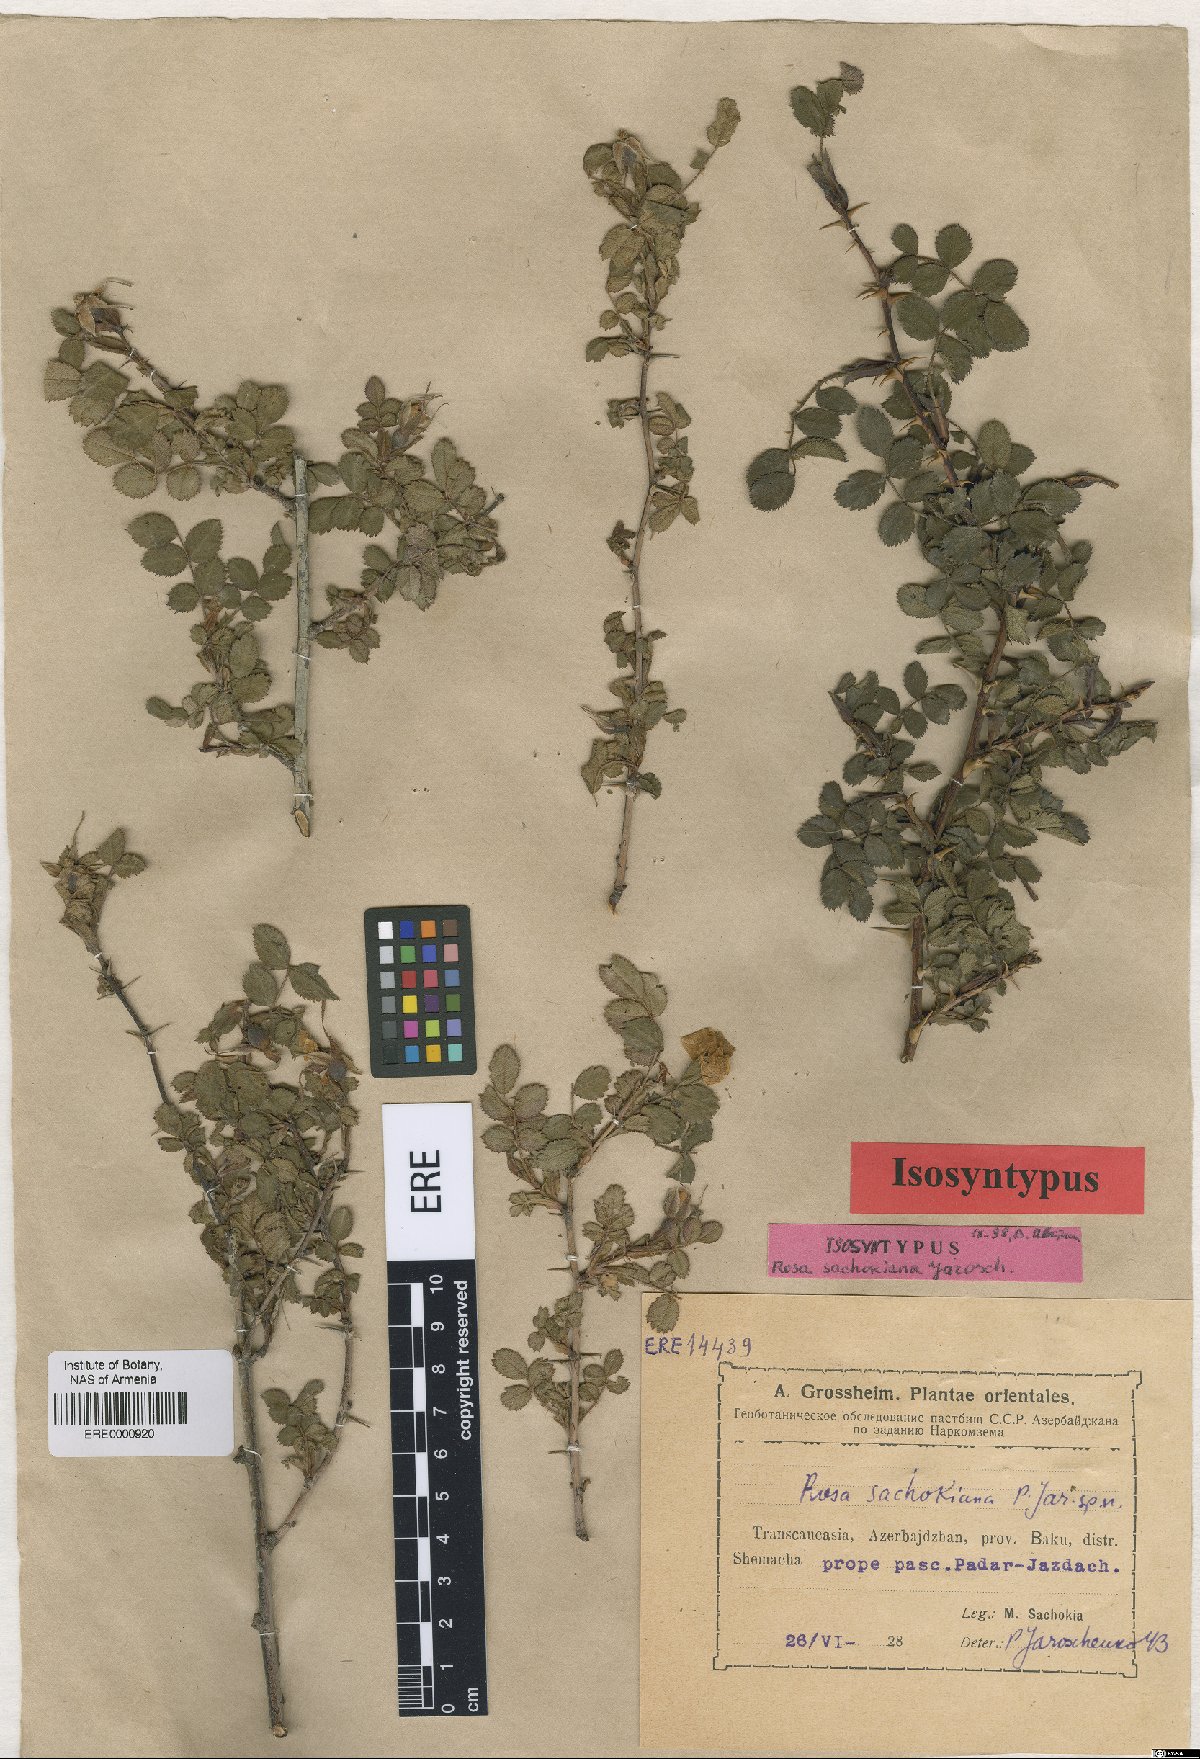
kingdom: Plantae
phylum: Tracheophyta
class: Magnoliopsida
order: Rosales
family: Rosaceae
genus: Rosa
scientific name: Rosa pulverulenta
